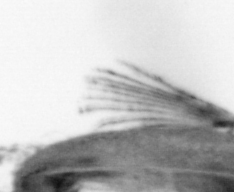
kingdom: Animalia
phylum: Annelida
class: Polychaeta
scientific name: Polychaeta
